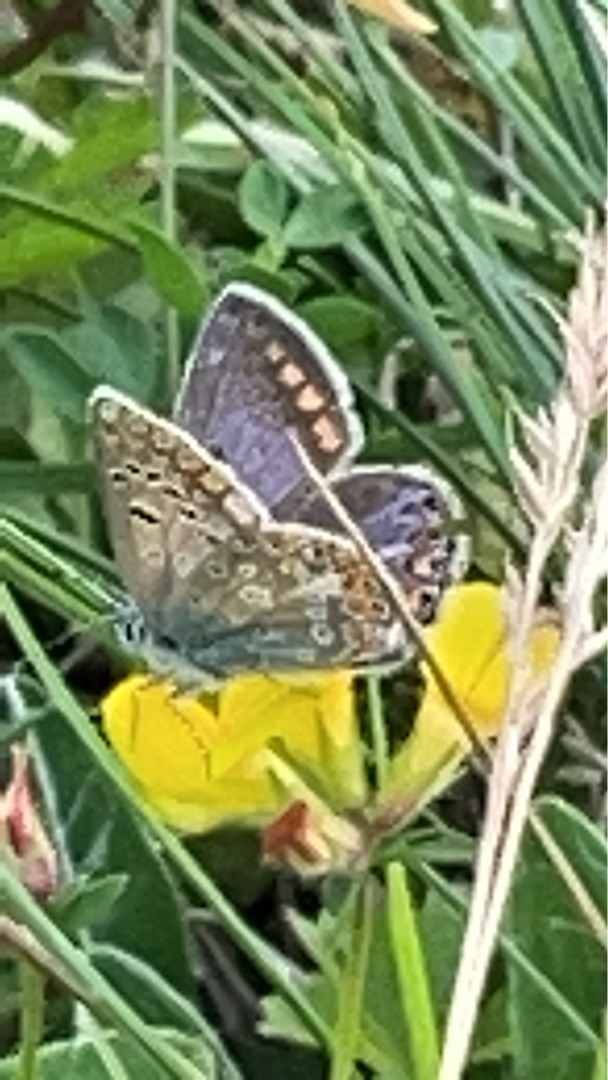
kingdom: Animalia
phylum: Arthropoda
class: Insecta
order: Lepidoptera
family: Lycaenidae
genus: Polyommatus
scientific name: Polyommatus icarus
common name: Almindelig blåfugl
